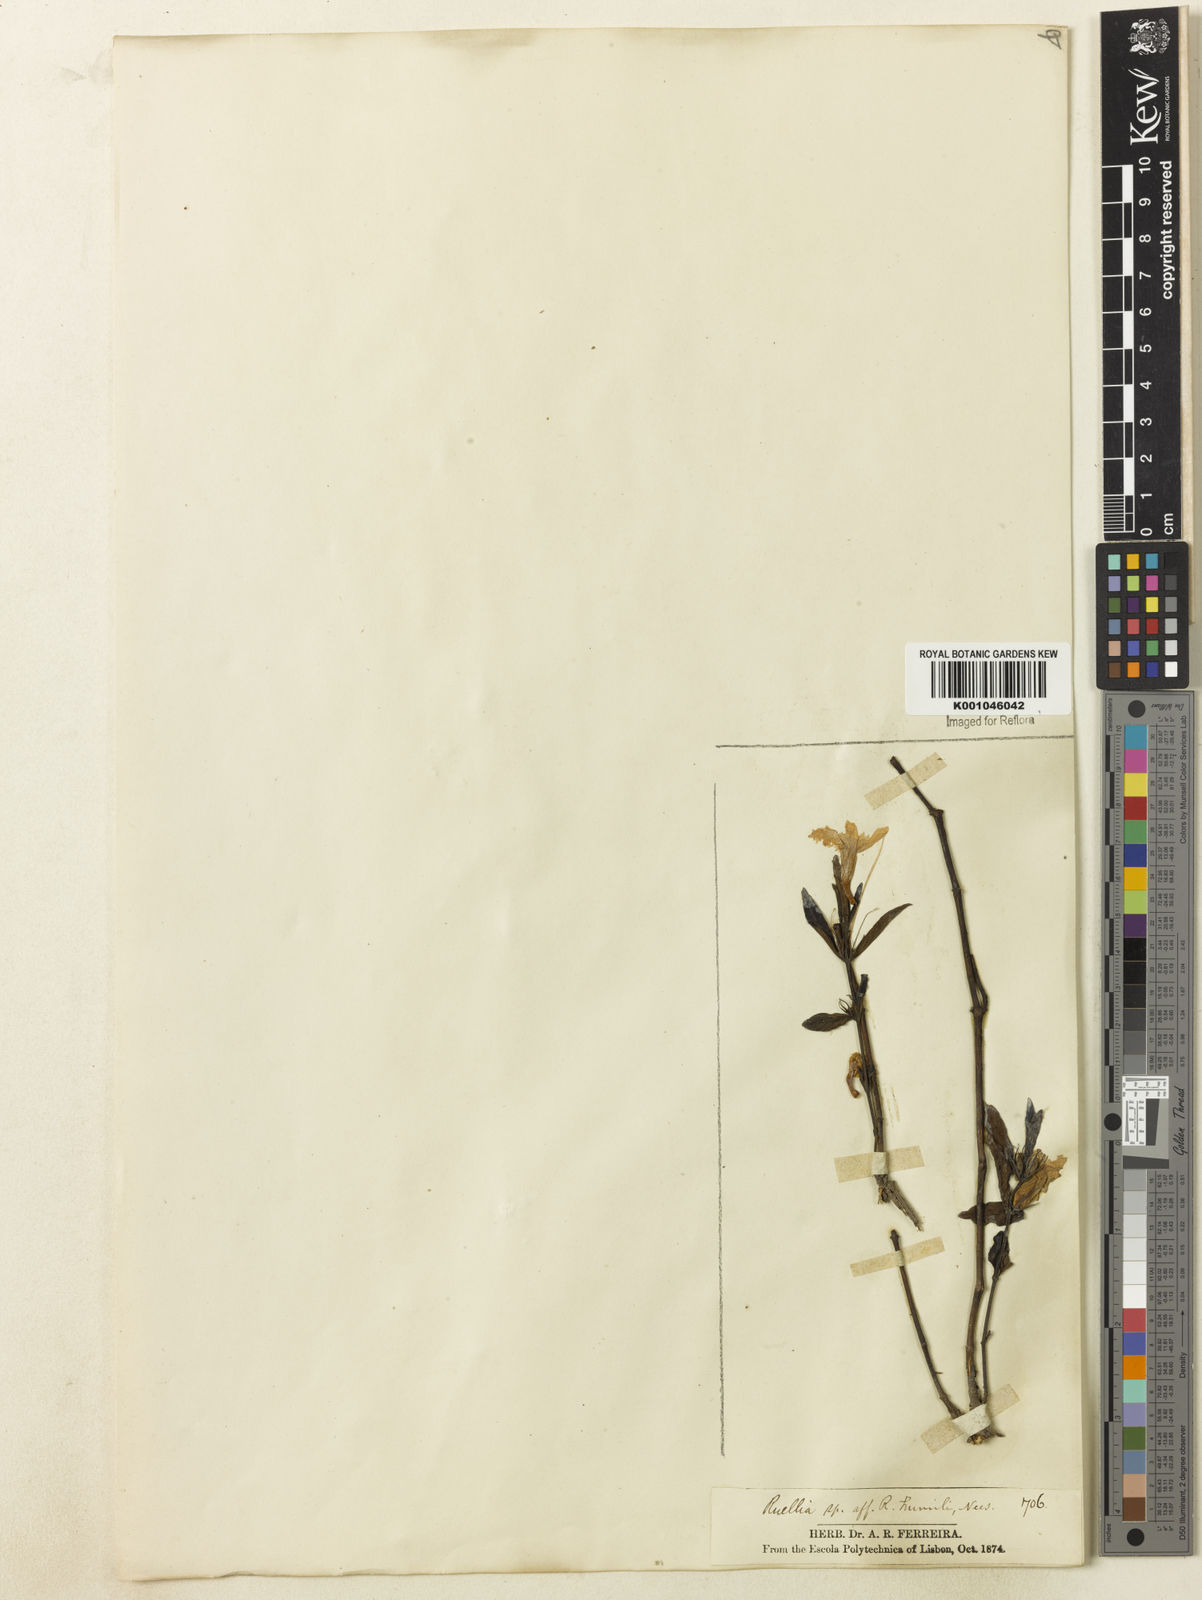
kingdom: Plantae
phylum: Tracheophyta
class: Magnoliopsida
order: Lamiales
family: Acanthaceae
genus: Ruellia
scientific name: Ruellia geminiflora
